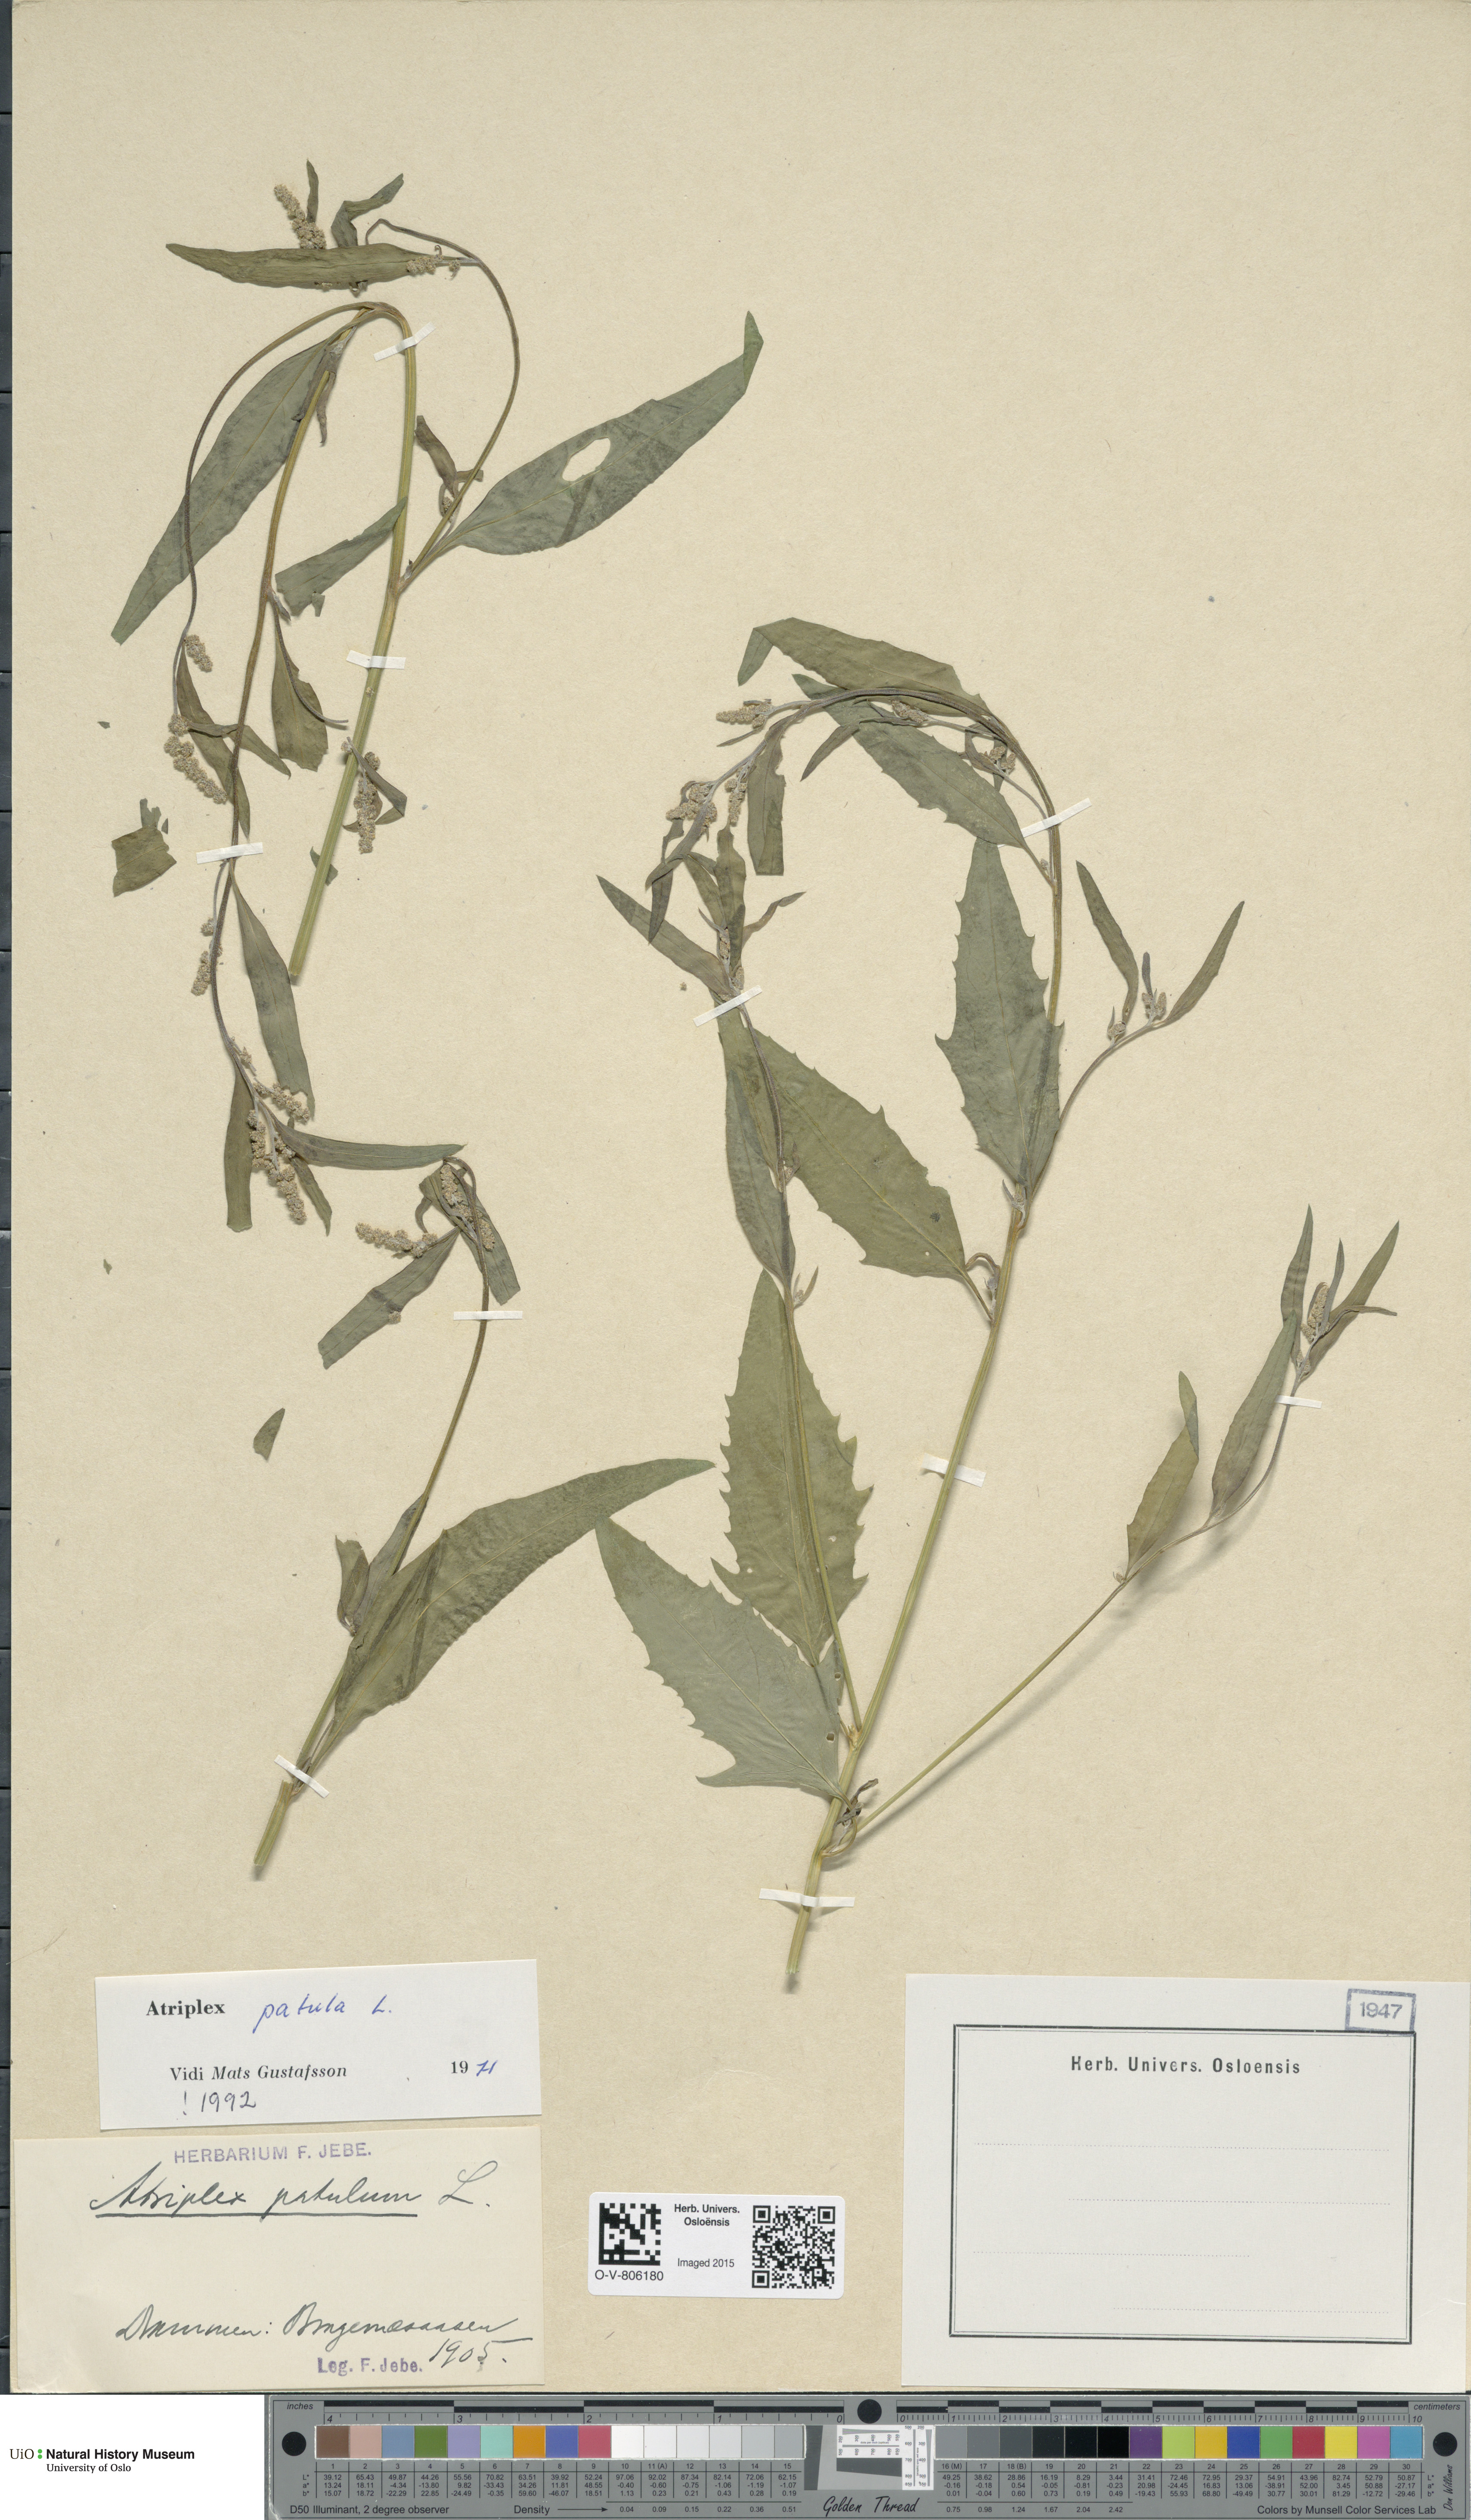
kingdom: Plantae
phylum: Tracheophyta
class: Magnoliopsida
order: Caryophyllales
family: Amaranthaceae
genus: Atriplex
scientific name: Atriplex patula
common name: Common orache
